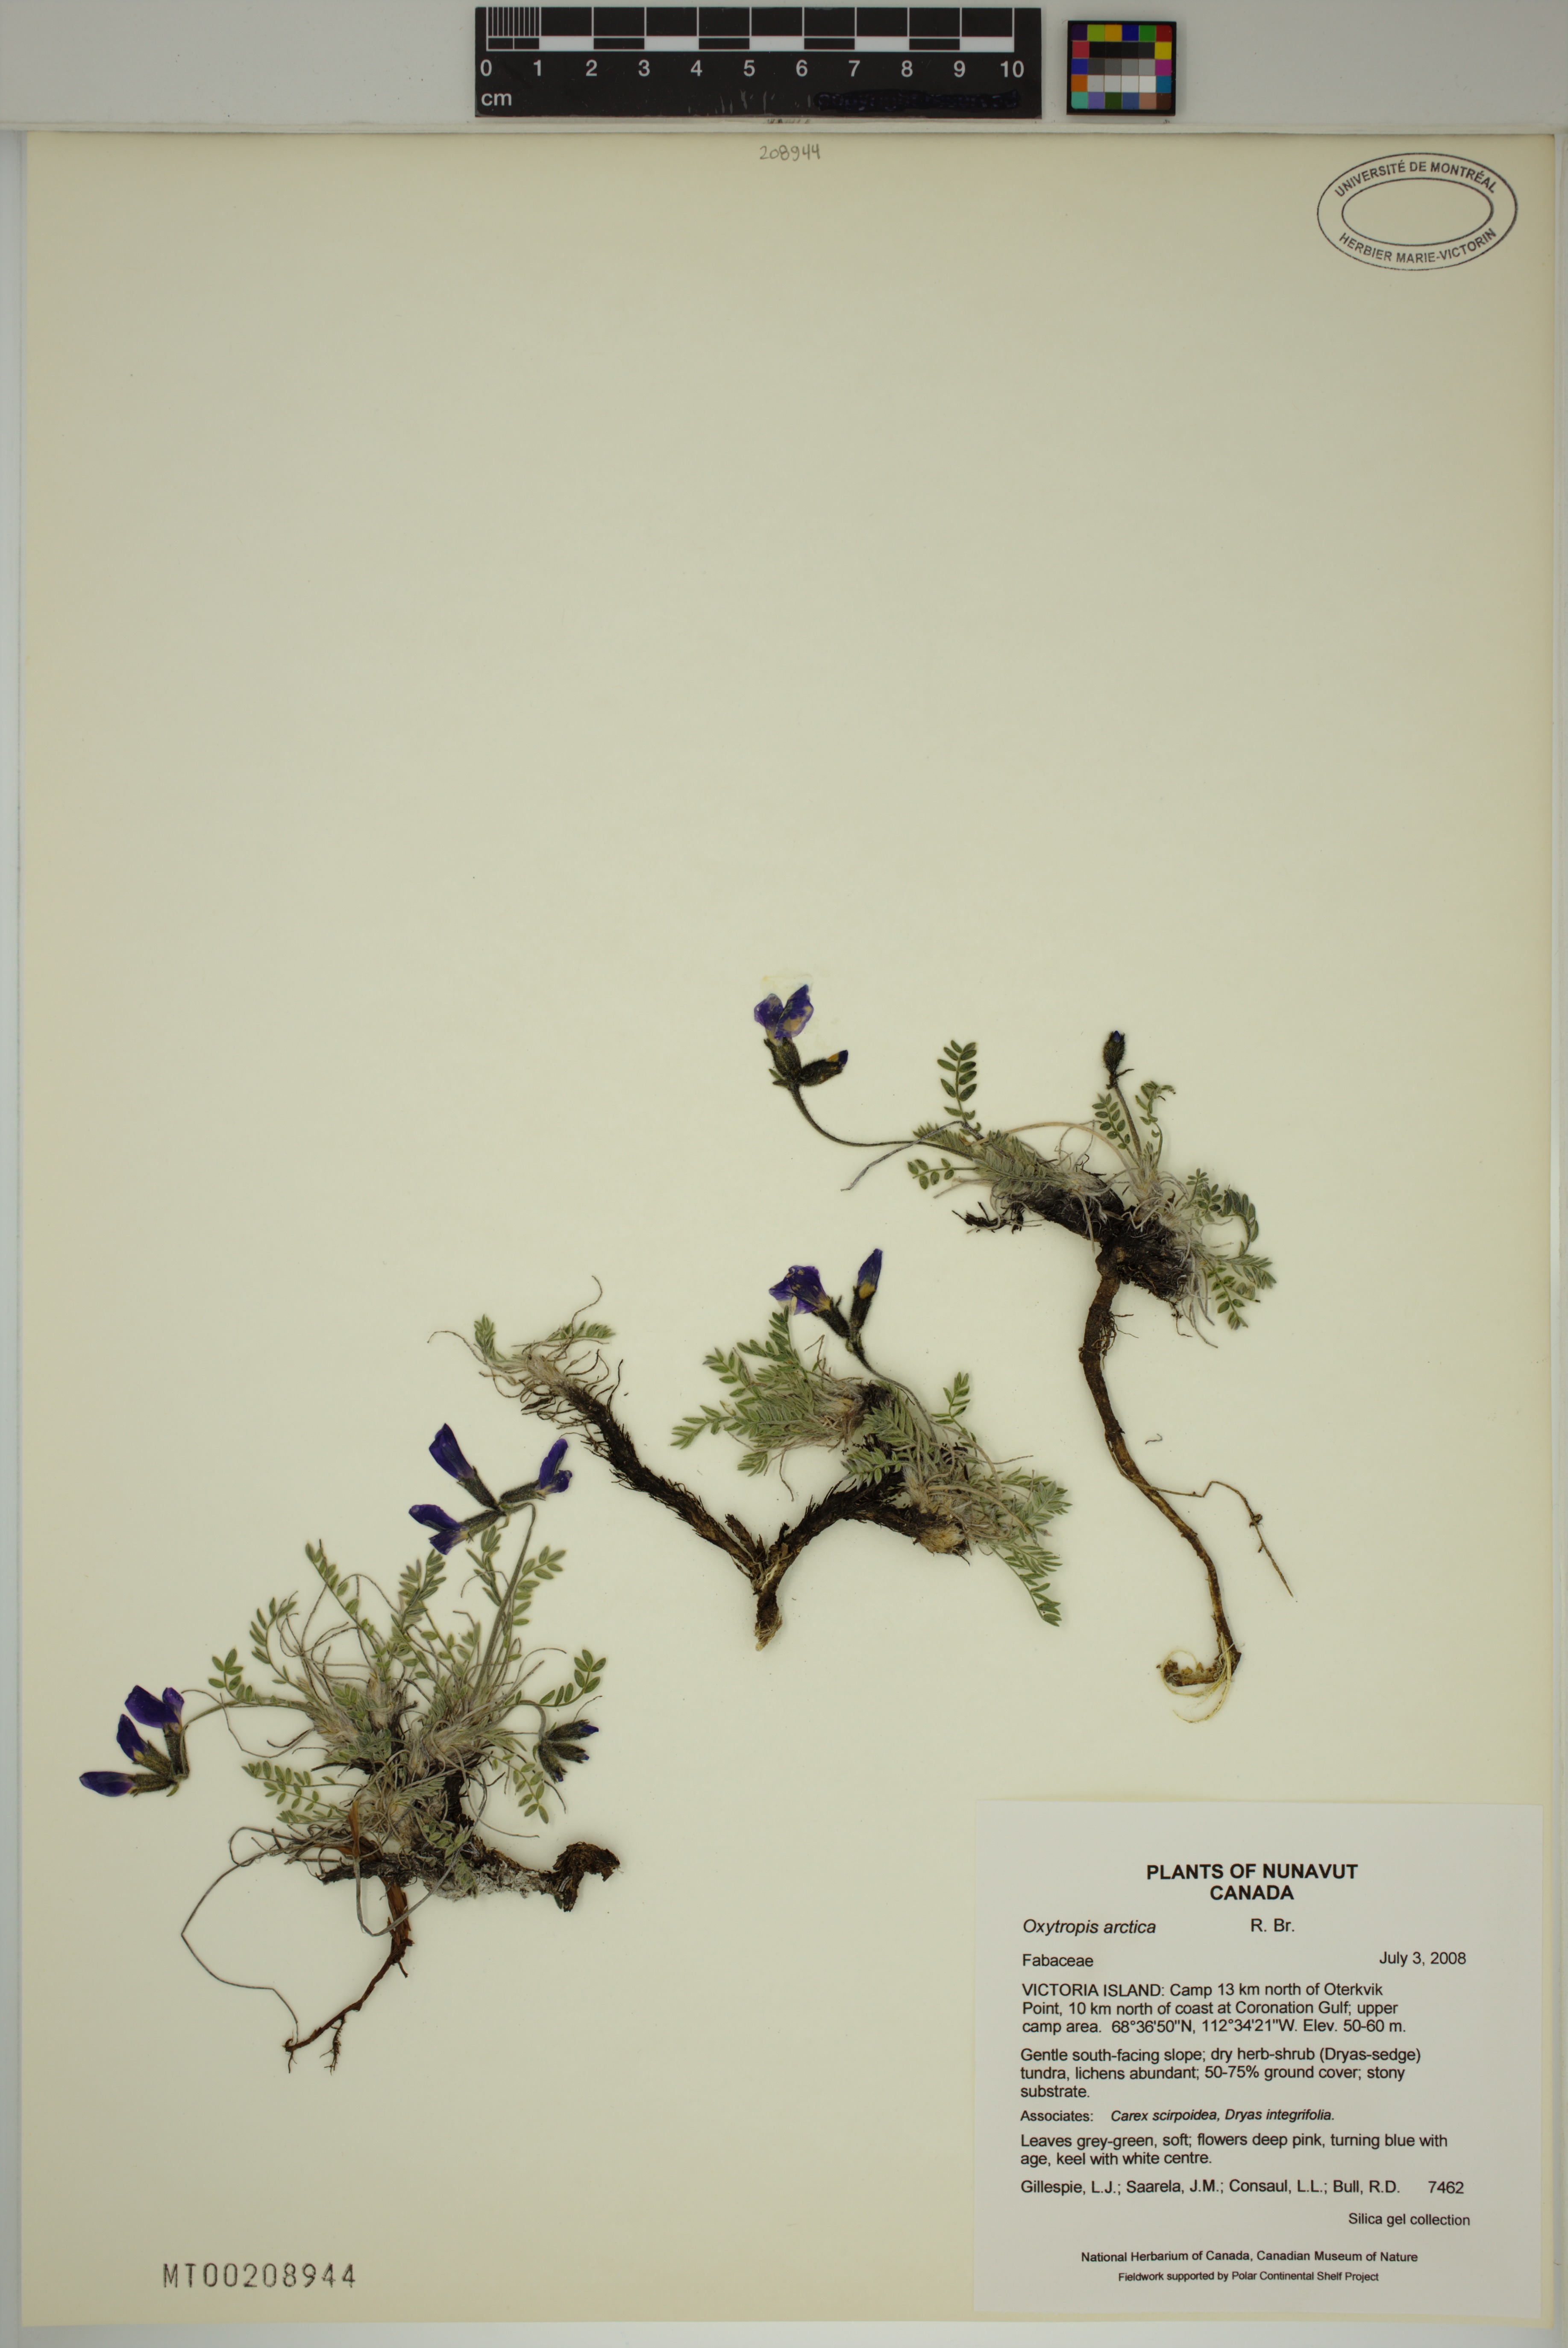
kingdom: Plantae
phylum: Tracheophyta
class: Magnoliopsida
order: Fabales
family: Fabaceae
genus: Oxytropis
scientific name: Oxytropis arctica
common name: Arctic locoweed
